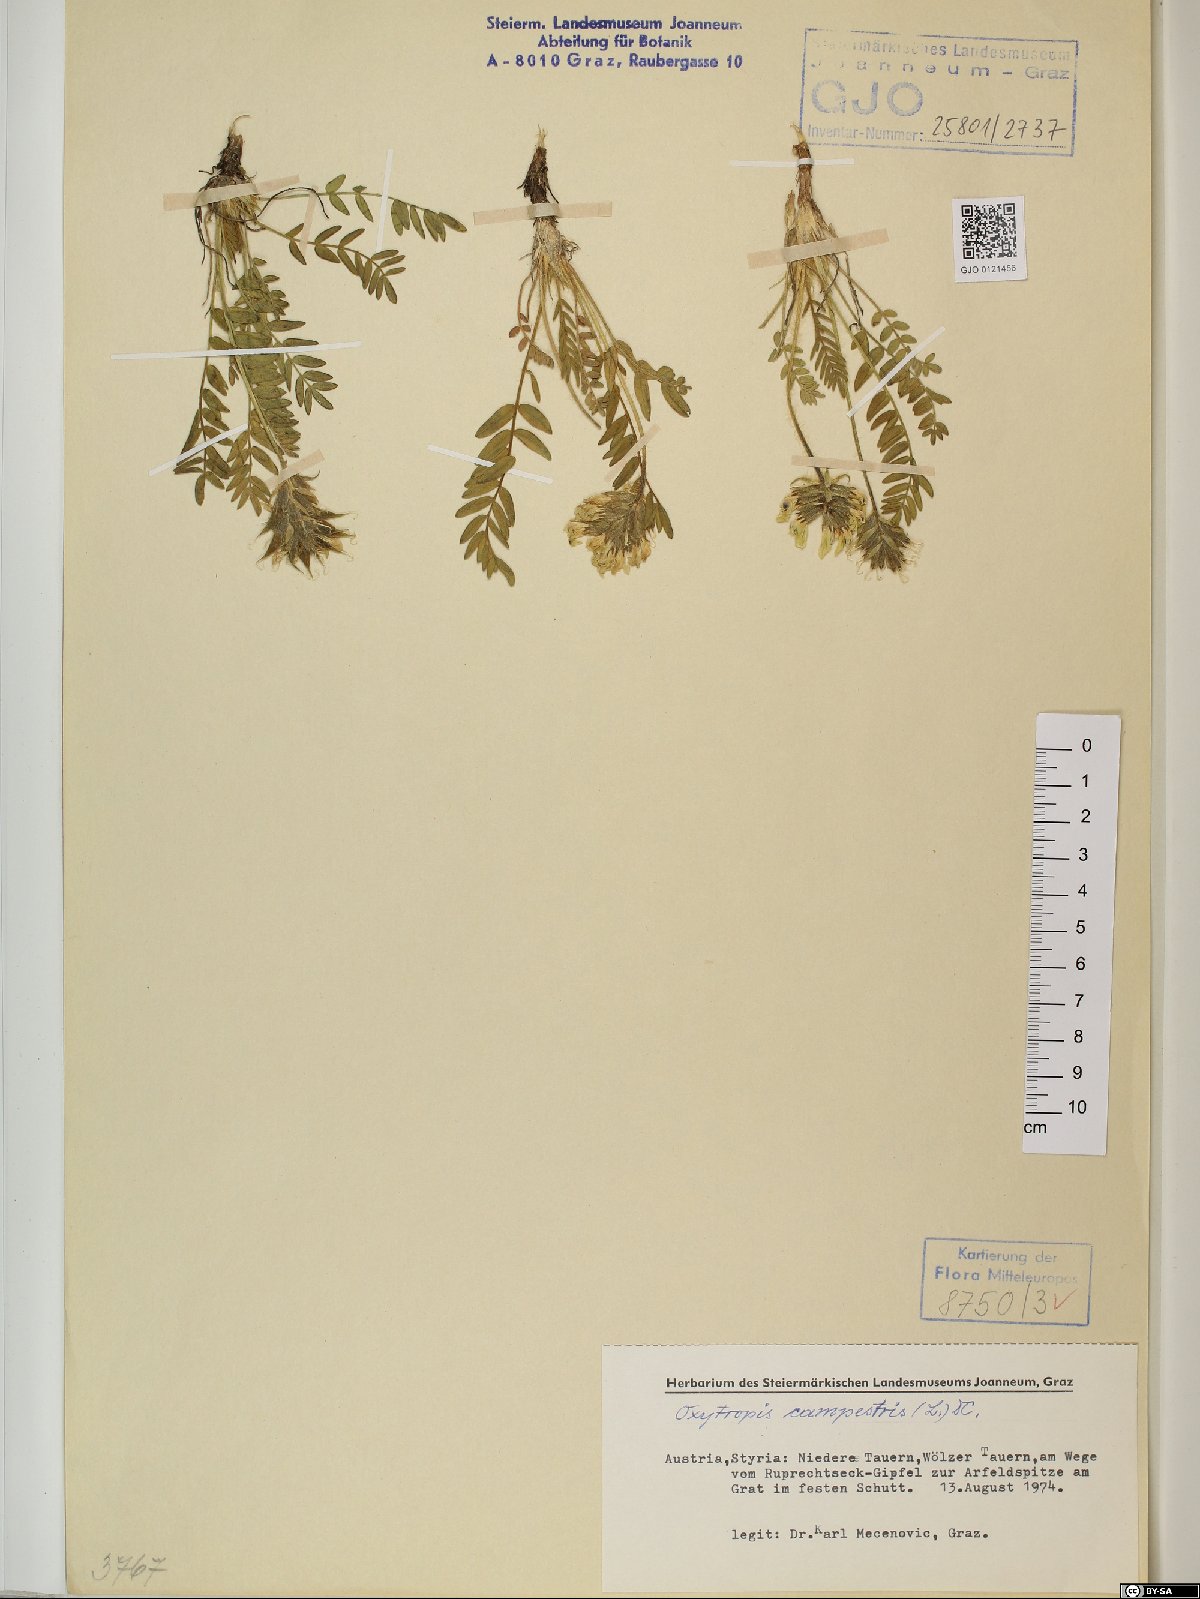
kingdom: Plantae
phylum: Tracheophyta
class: Magnoliopsida
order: Fabales
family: Fabaceae
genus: Oxytropis
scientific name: Oxytropis campestris
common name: Field locoweed
